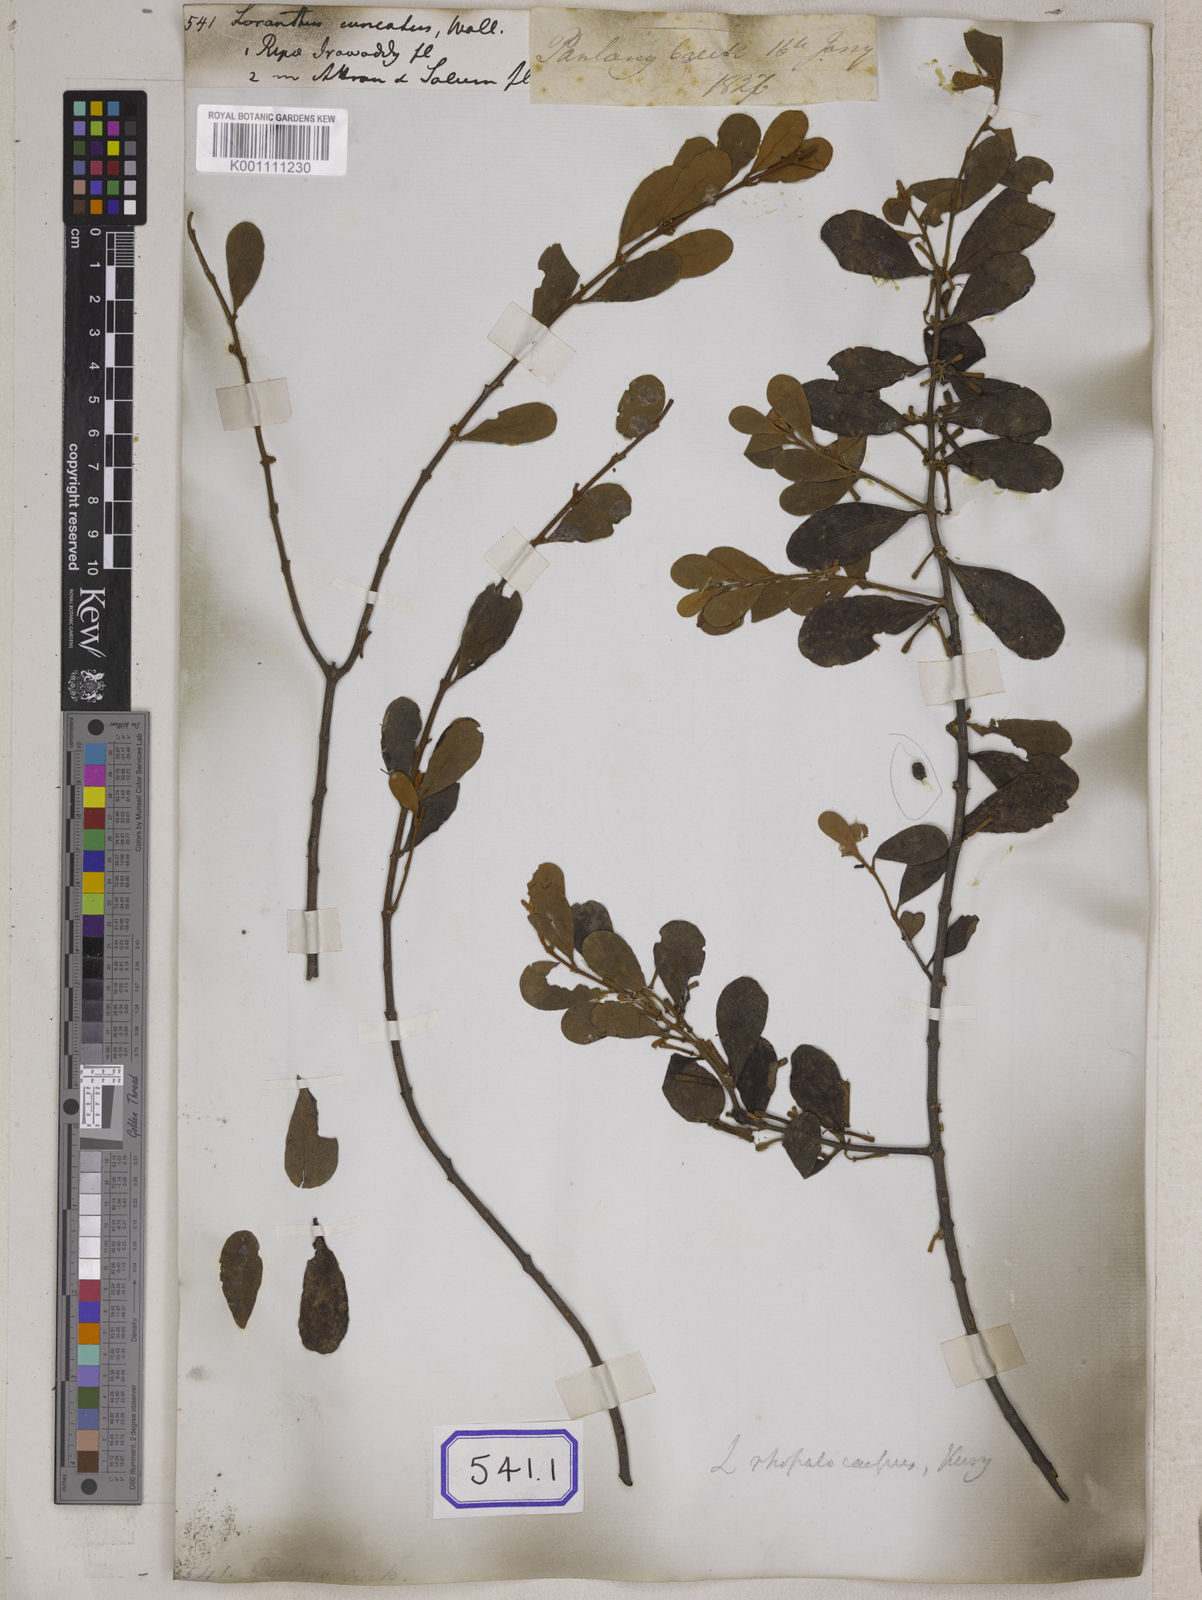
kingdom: Plantae
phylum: Tracheophyta
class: Magnoliopsida
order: Santalales
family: Loranthaceae
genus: Scurrula
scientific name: Scurrula fusca
